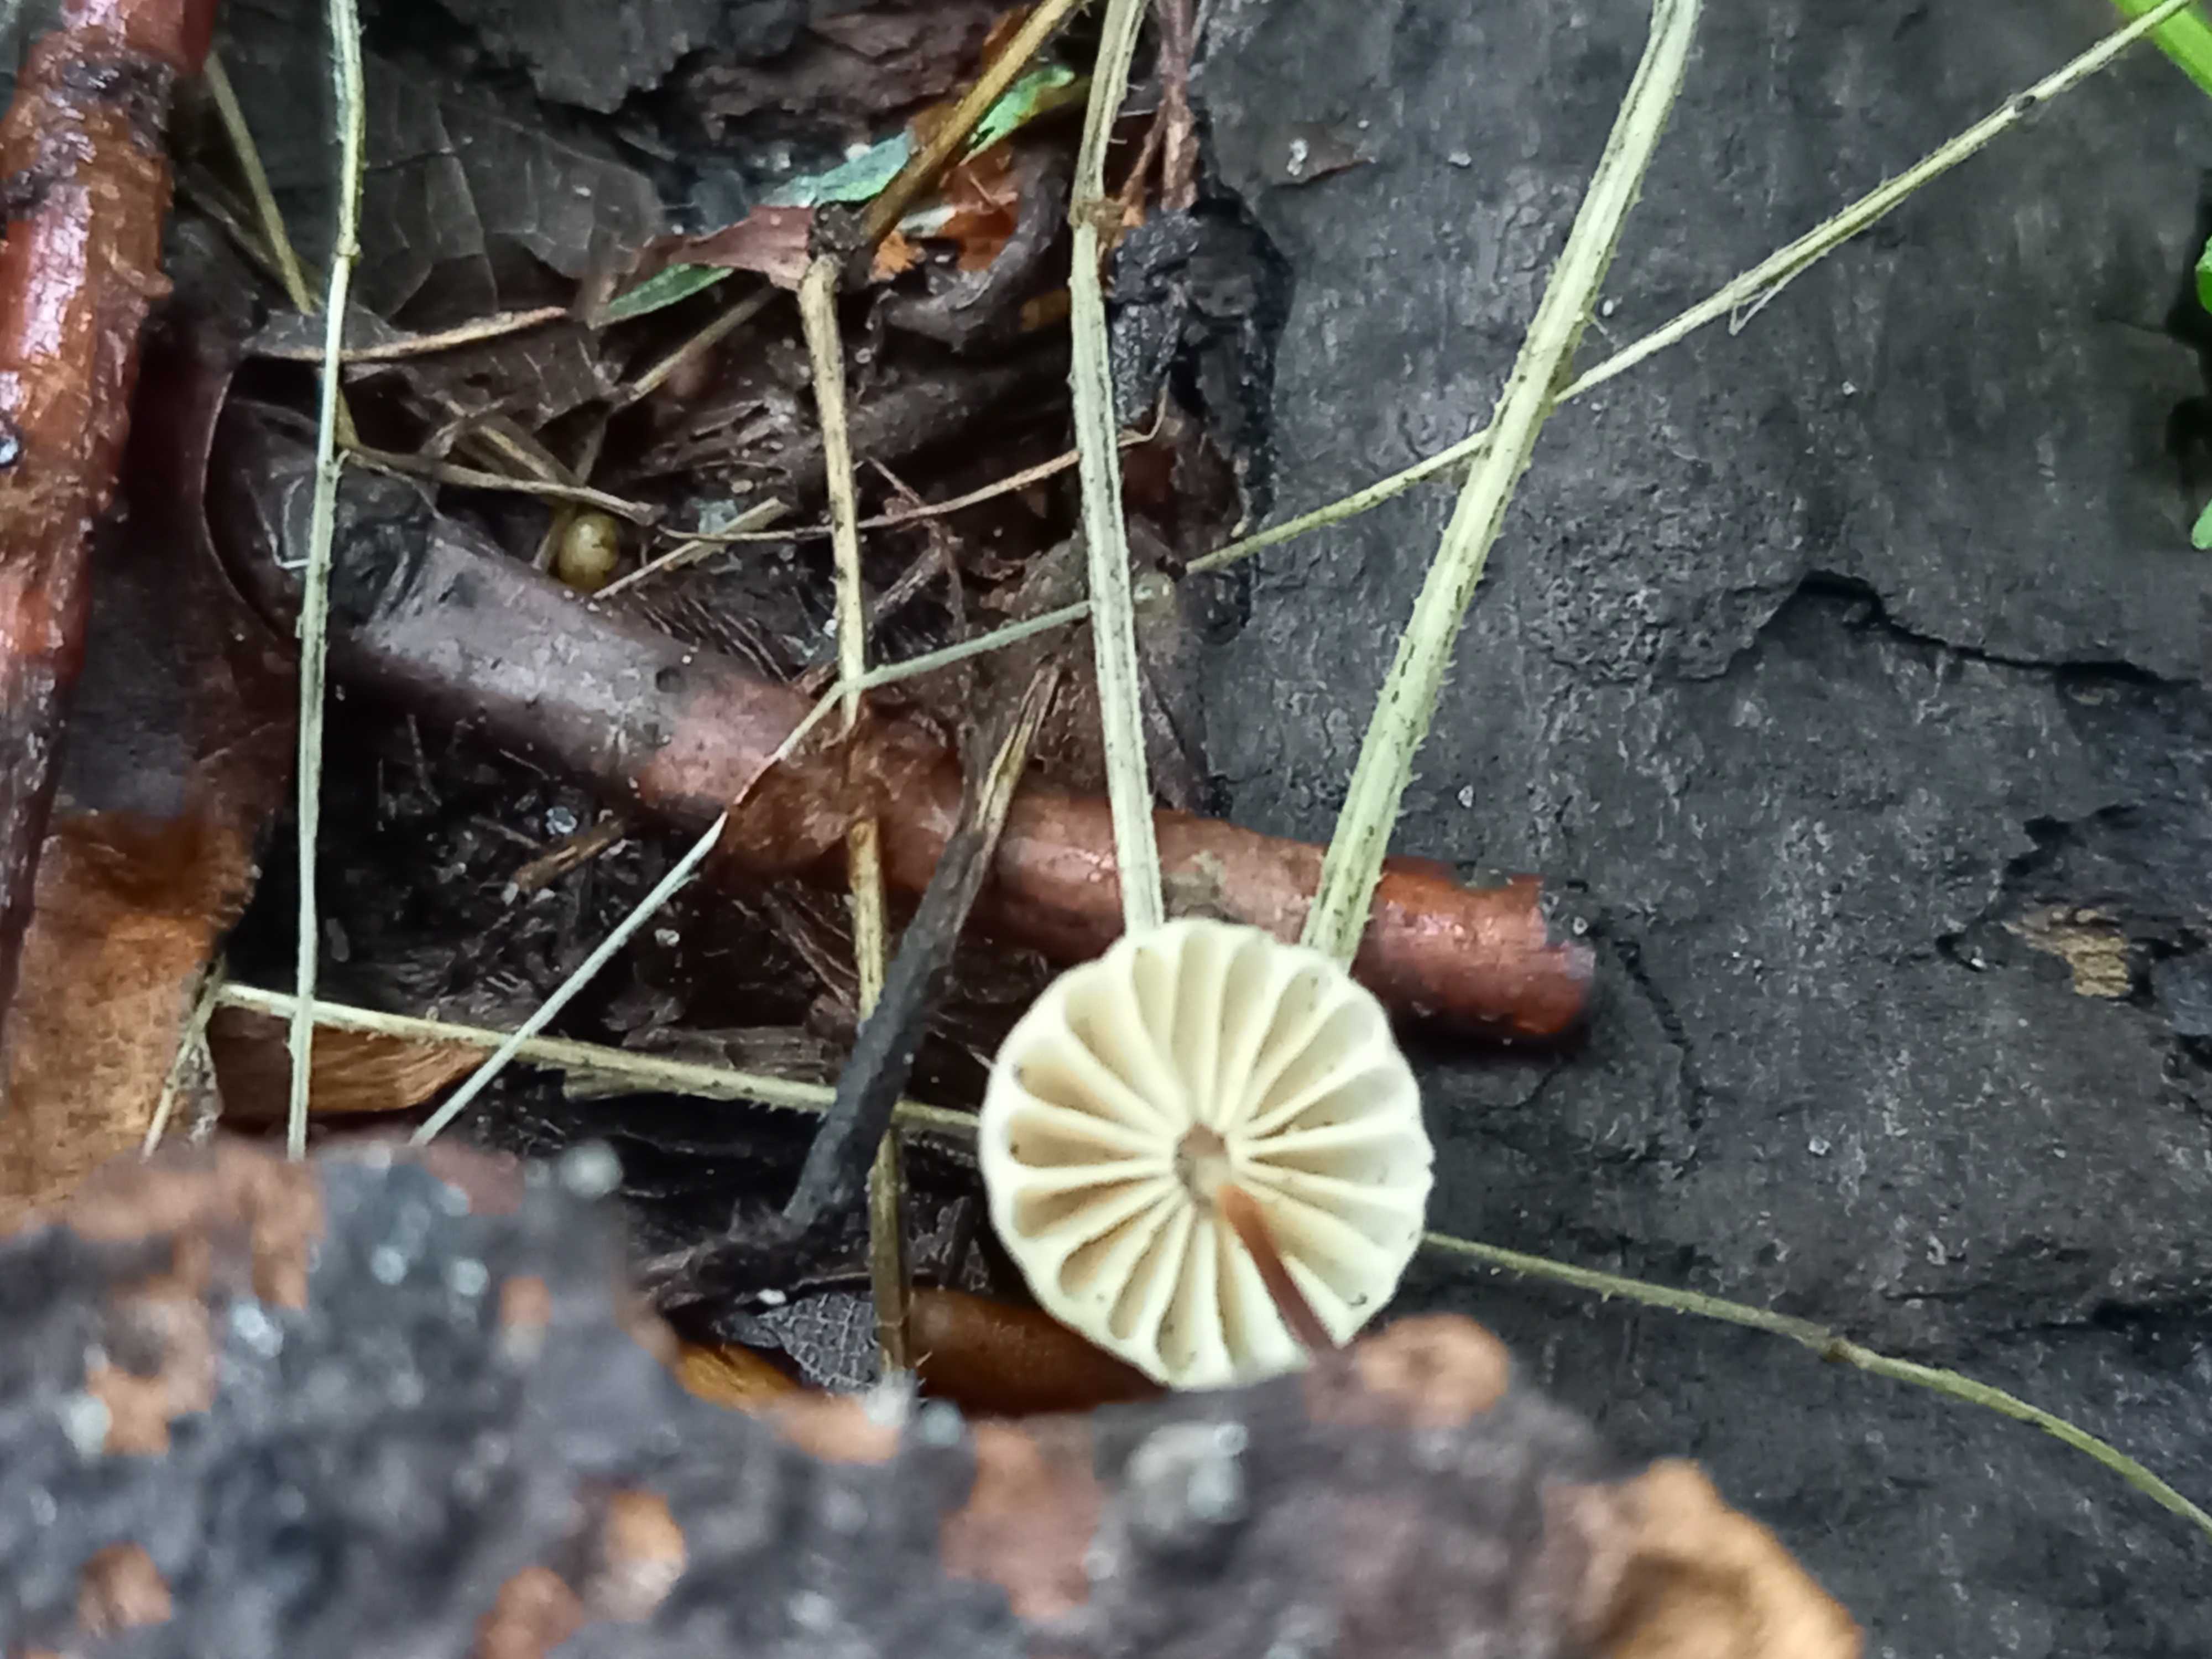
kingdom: Fungi
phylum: Basidiomycota
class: Agaricomycetes
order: Agaricales
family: Marasmiaceae
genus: Marasmius
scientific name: Marasmius rotula
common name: hjul-bruskhat
